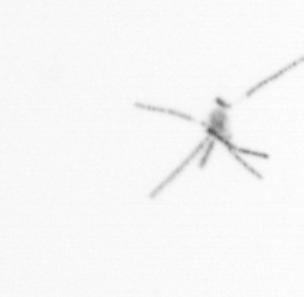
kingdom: Chromista
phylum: Myzozoa
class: Dinophyceae
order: Gonyaulacales
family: Ceratiaceae
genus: Ceratium
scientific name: Ceratium
